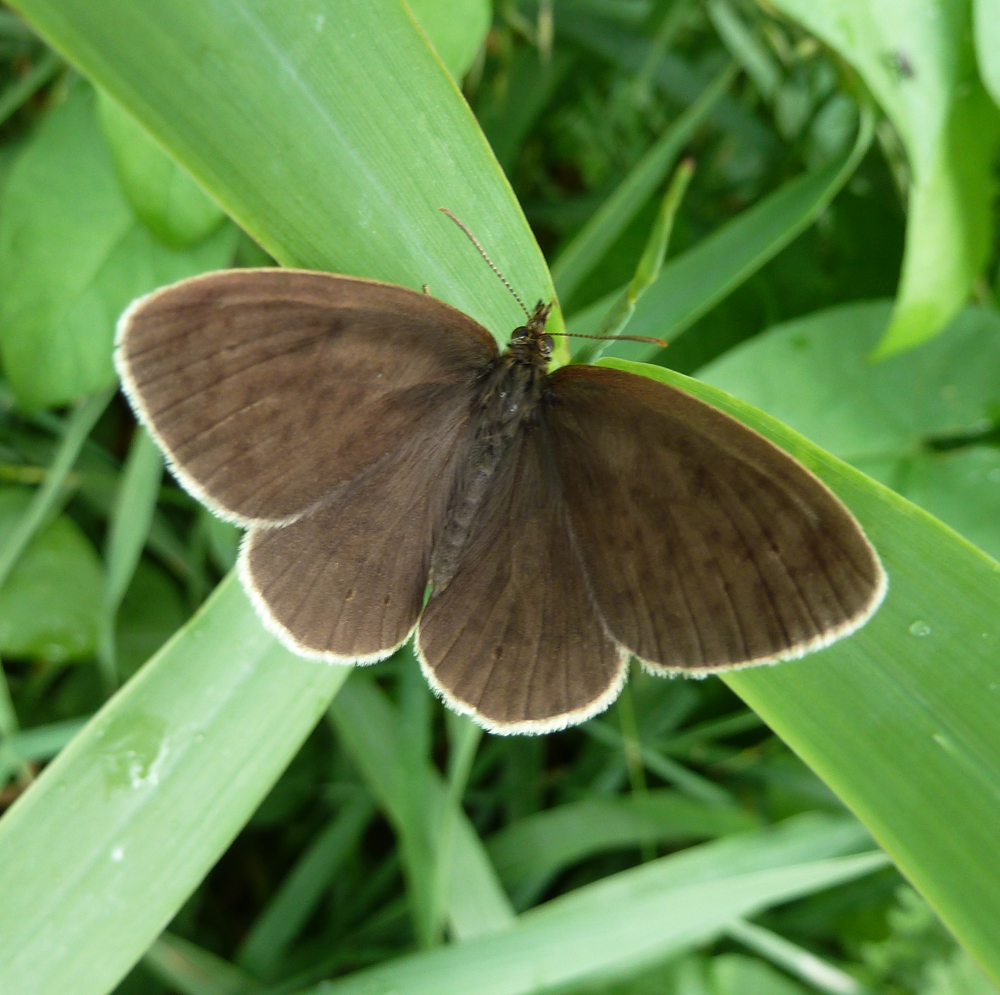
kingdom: Animalia
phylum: Arthropoda
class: Insecta
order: Lepidoptera
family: Nymphalidae
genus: Aphantopus
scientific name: Aphantopus hyperantus
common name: Ringlet
